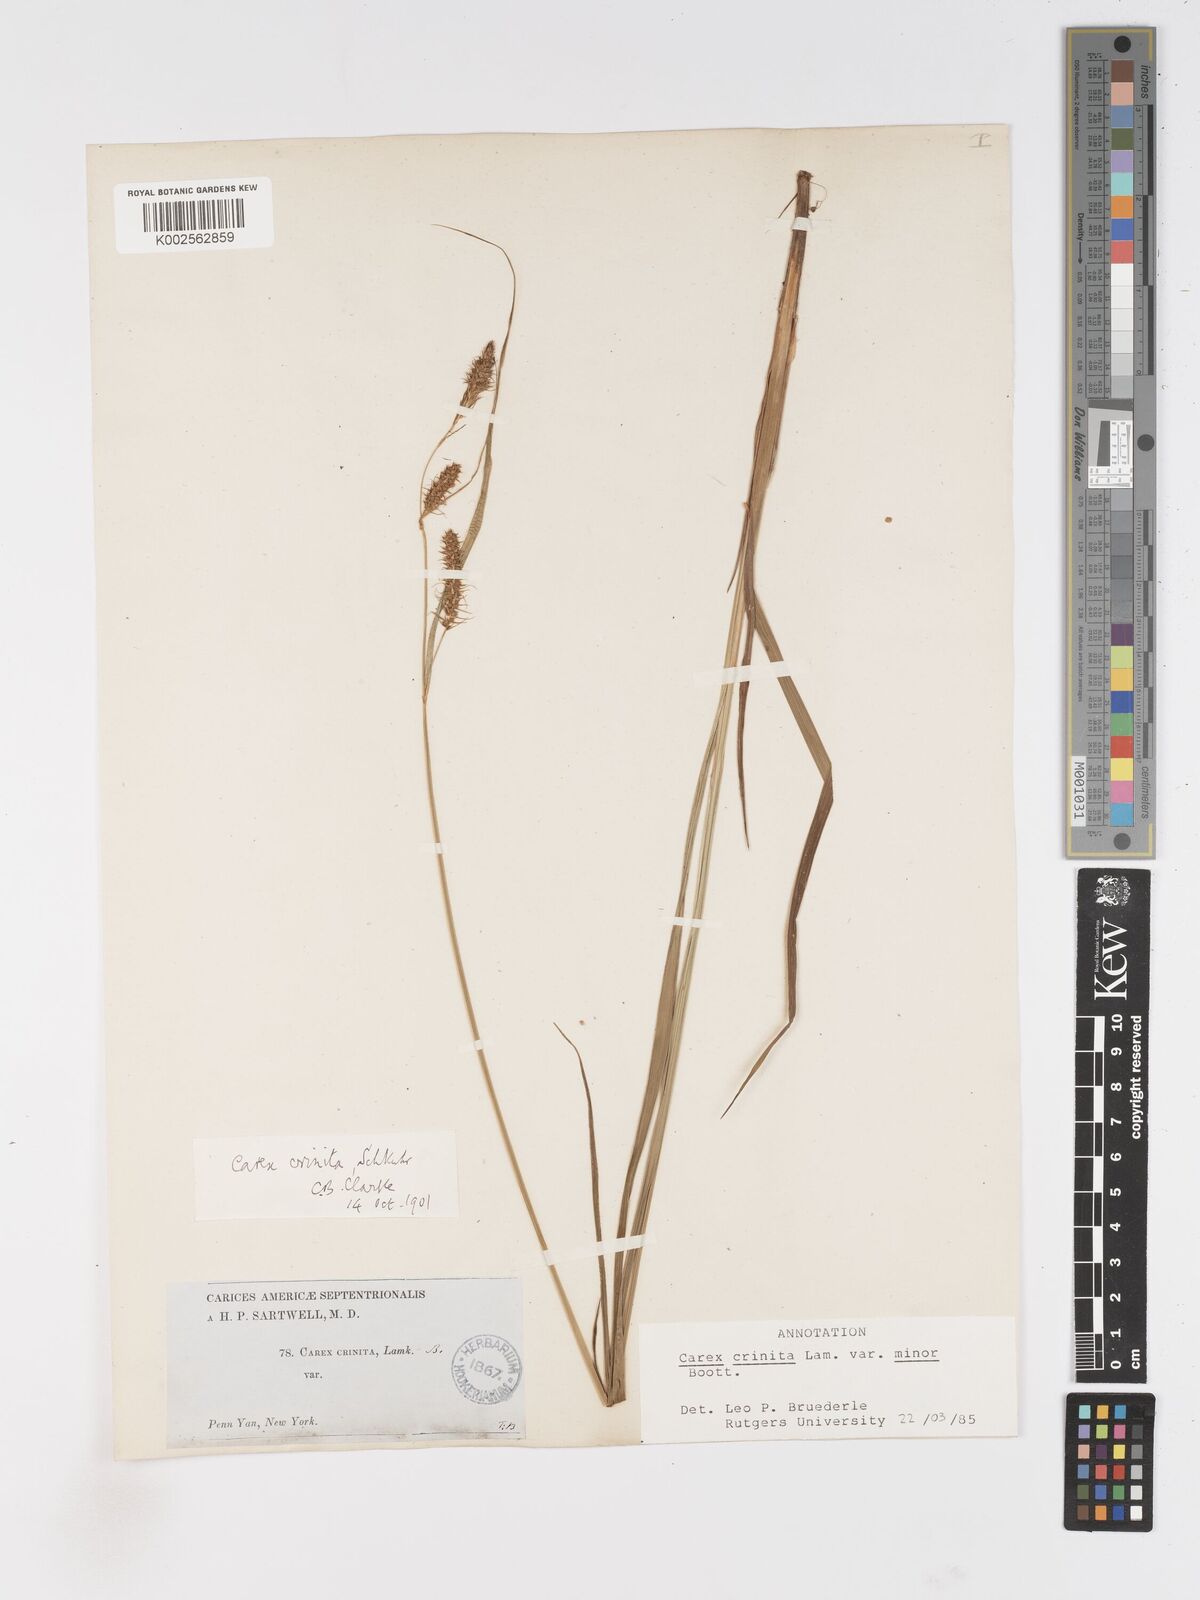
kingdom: Plantae
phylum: Tracheophyta
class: Liliopsida
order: Poales
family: Cyperaceae
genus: Carex
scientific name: Carex crinita
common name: Fringed sedge
